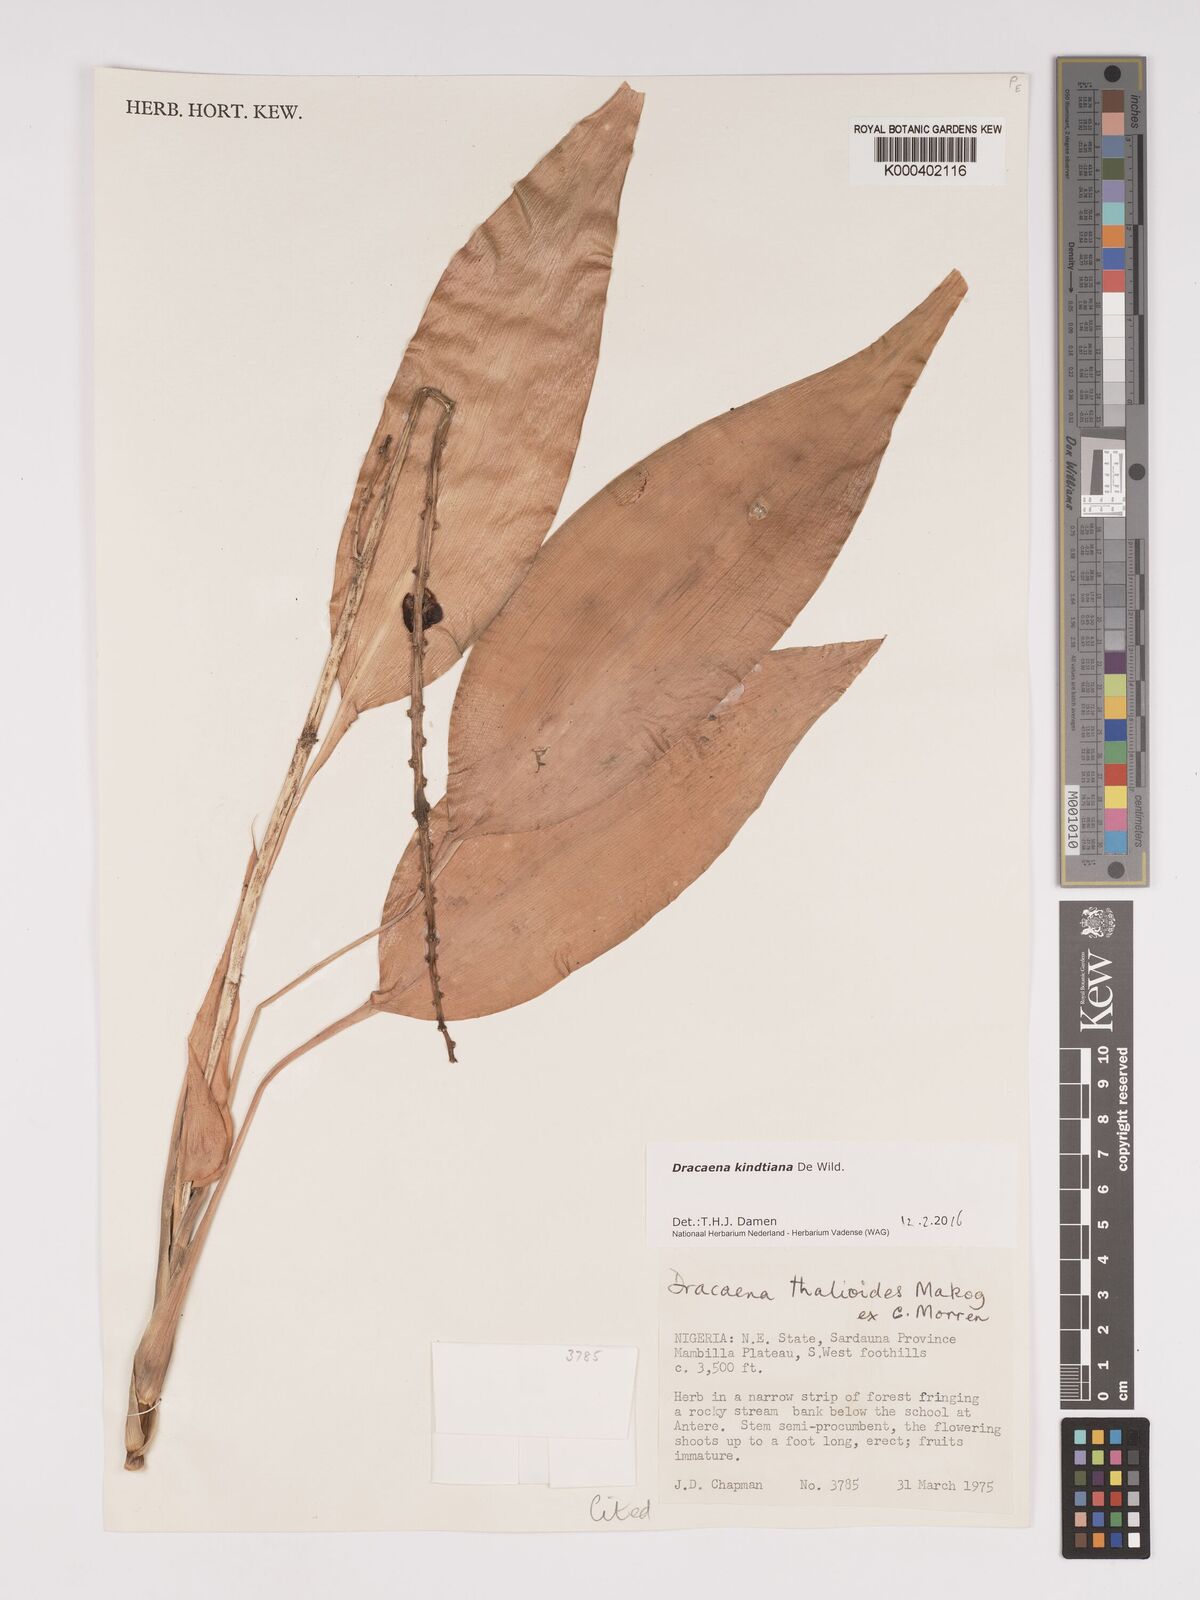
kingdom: Plantae
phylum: Tracheophyta
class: Liliopsida
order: Asparagales
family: Asparagaceae
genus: Dracaena
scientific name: Dracaena kindtiana
